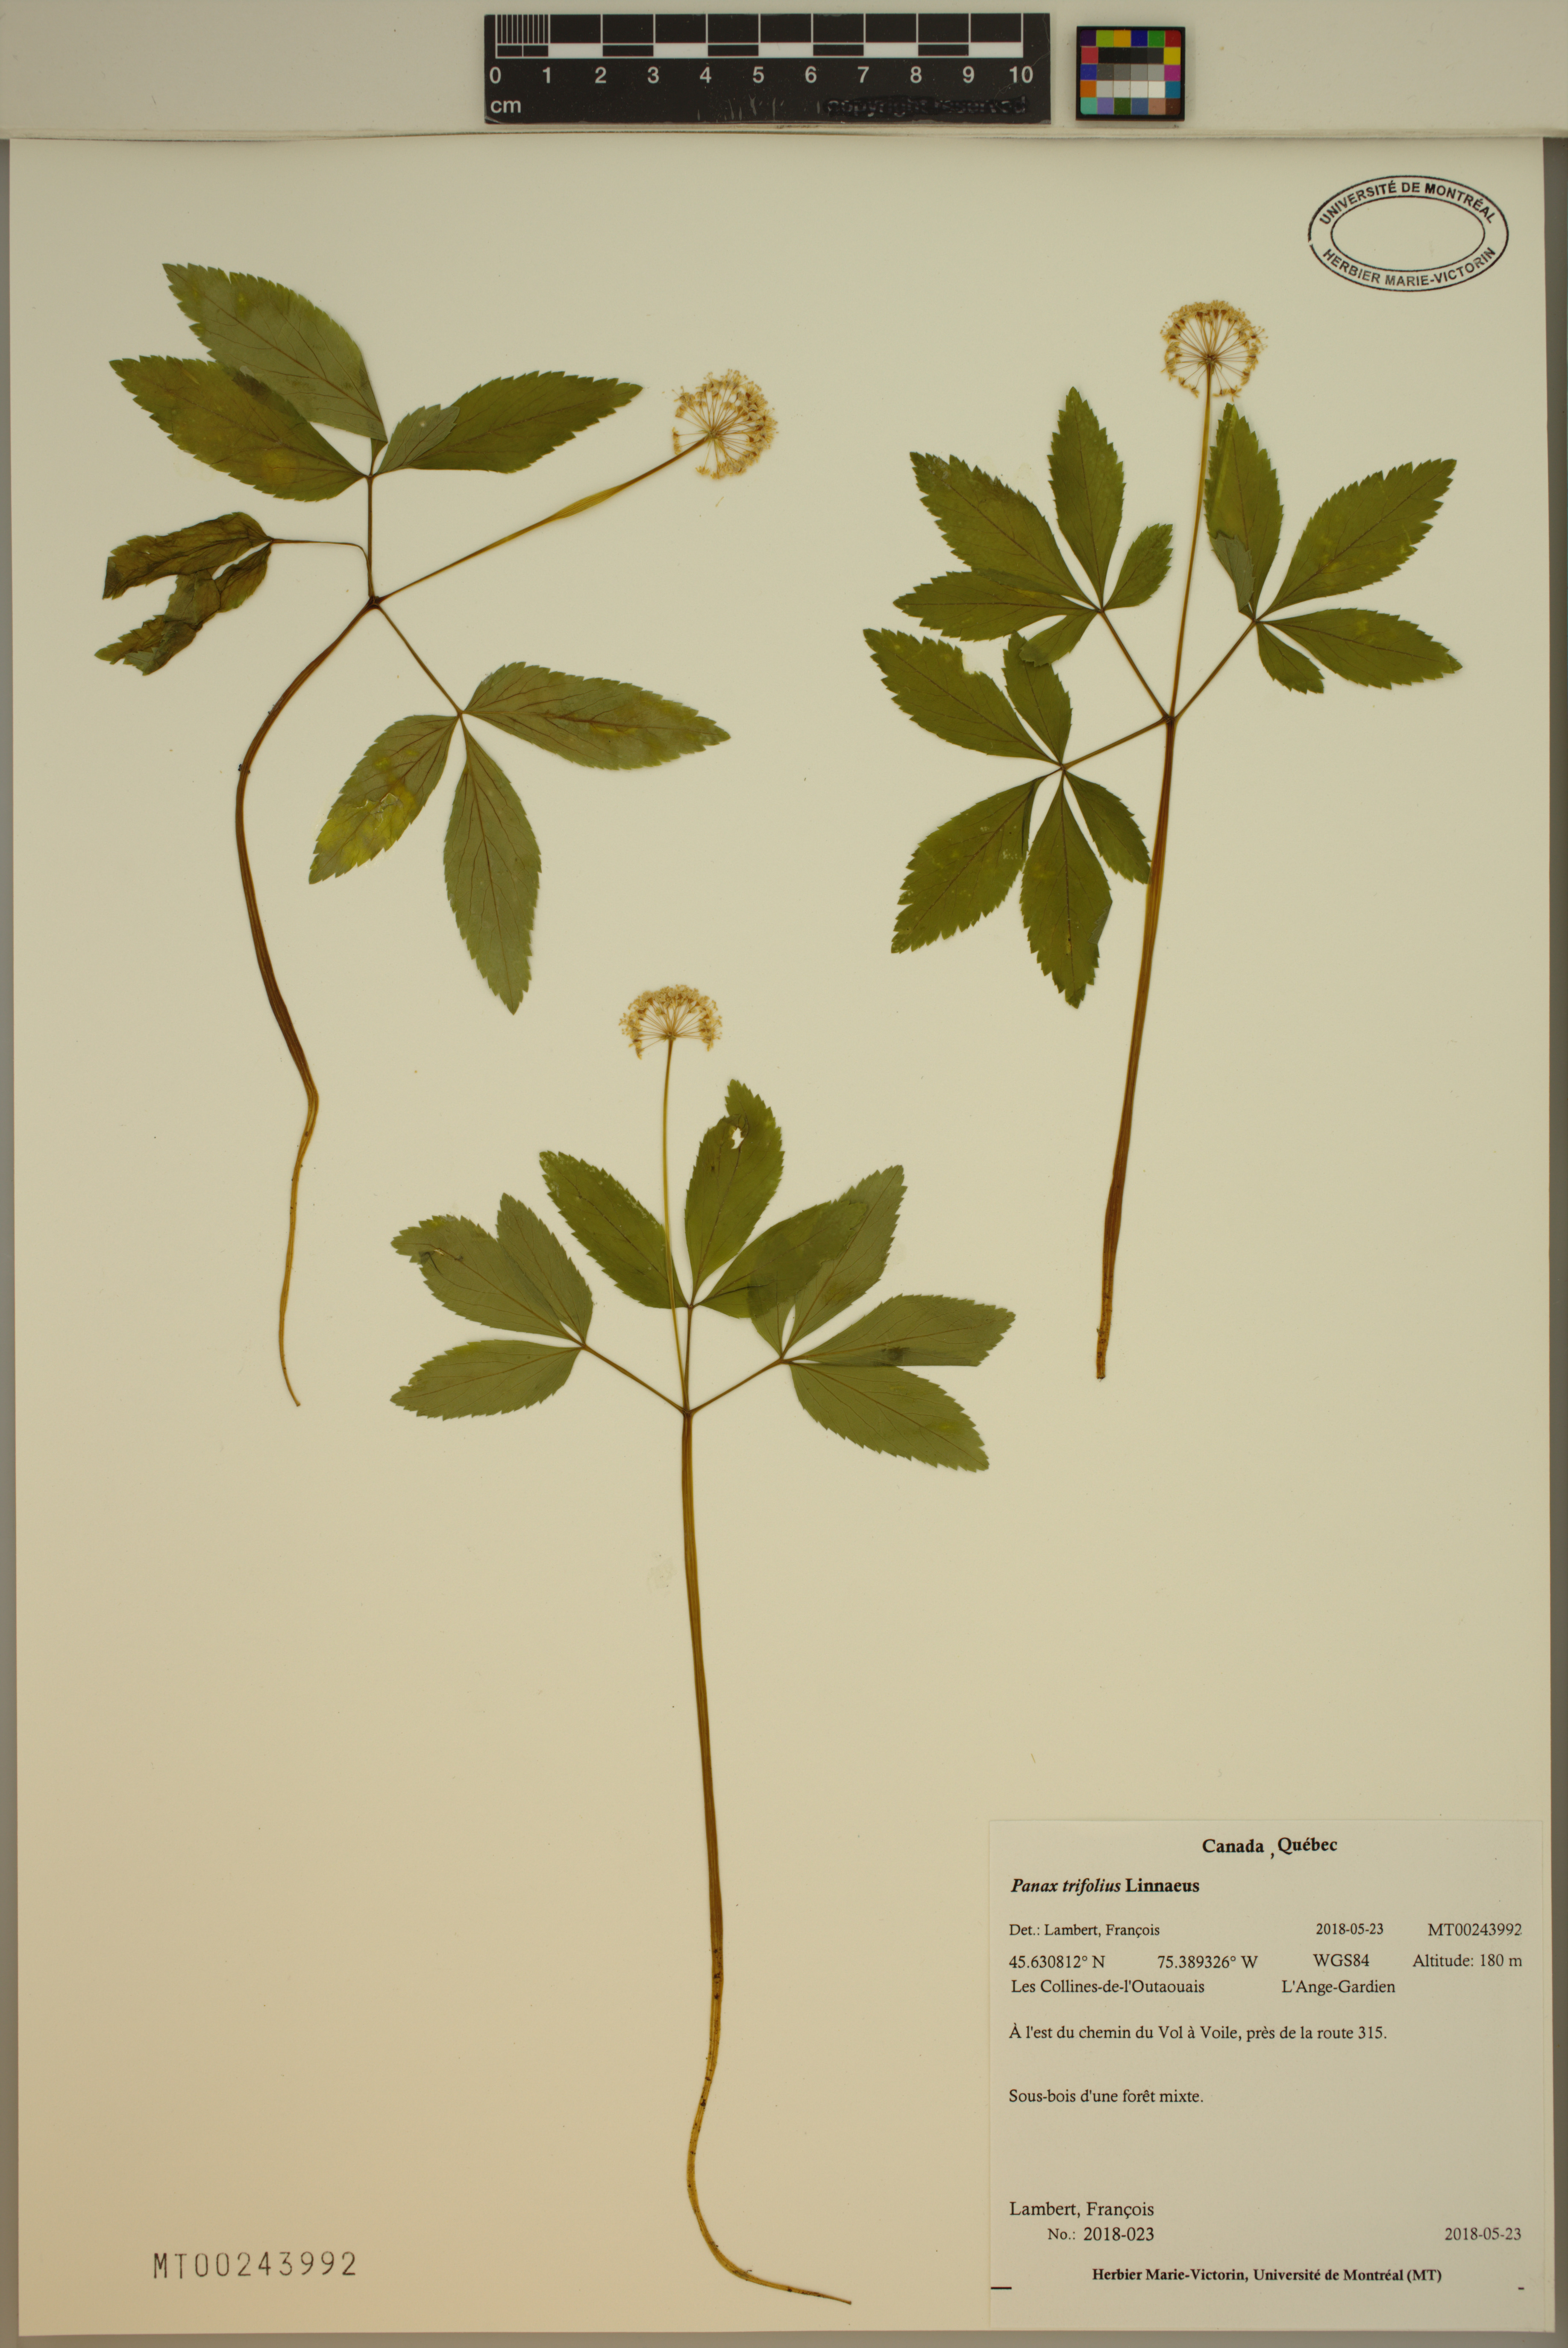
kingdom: Plantae
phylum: Tracheophyta
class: Magnoliopsida
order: Apiales
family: Araliaceae
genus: Panax
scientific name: Panax trifolius
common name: Dwarf ginseng
